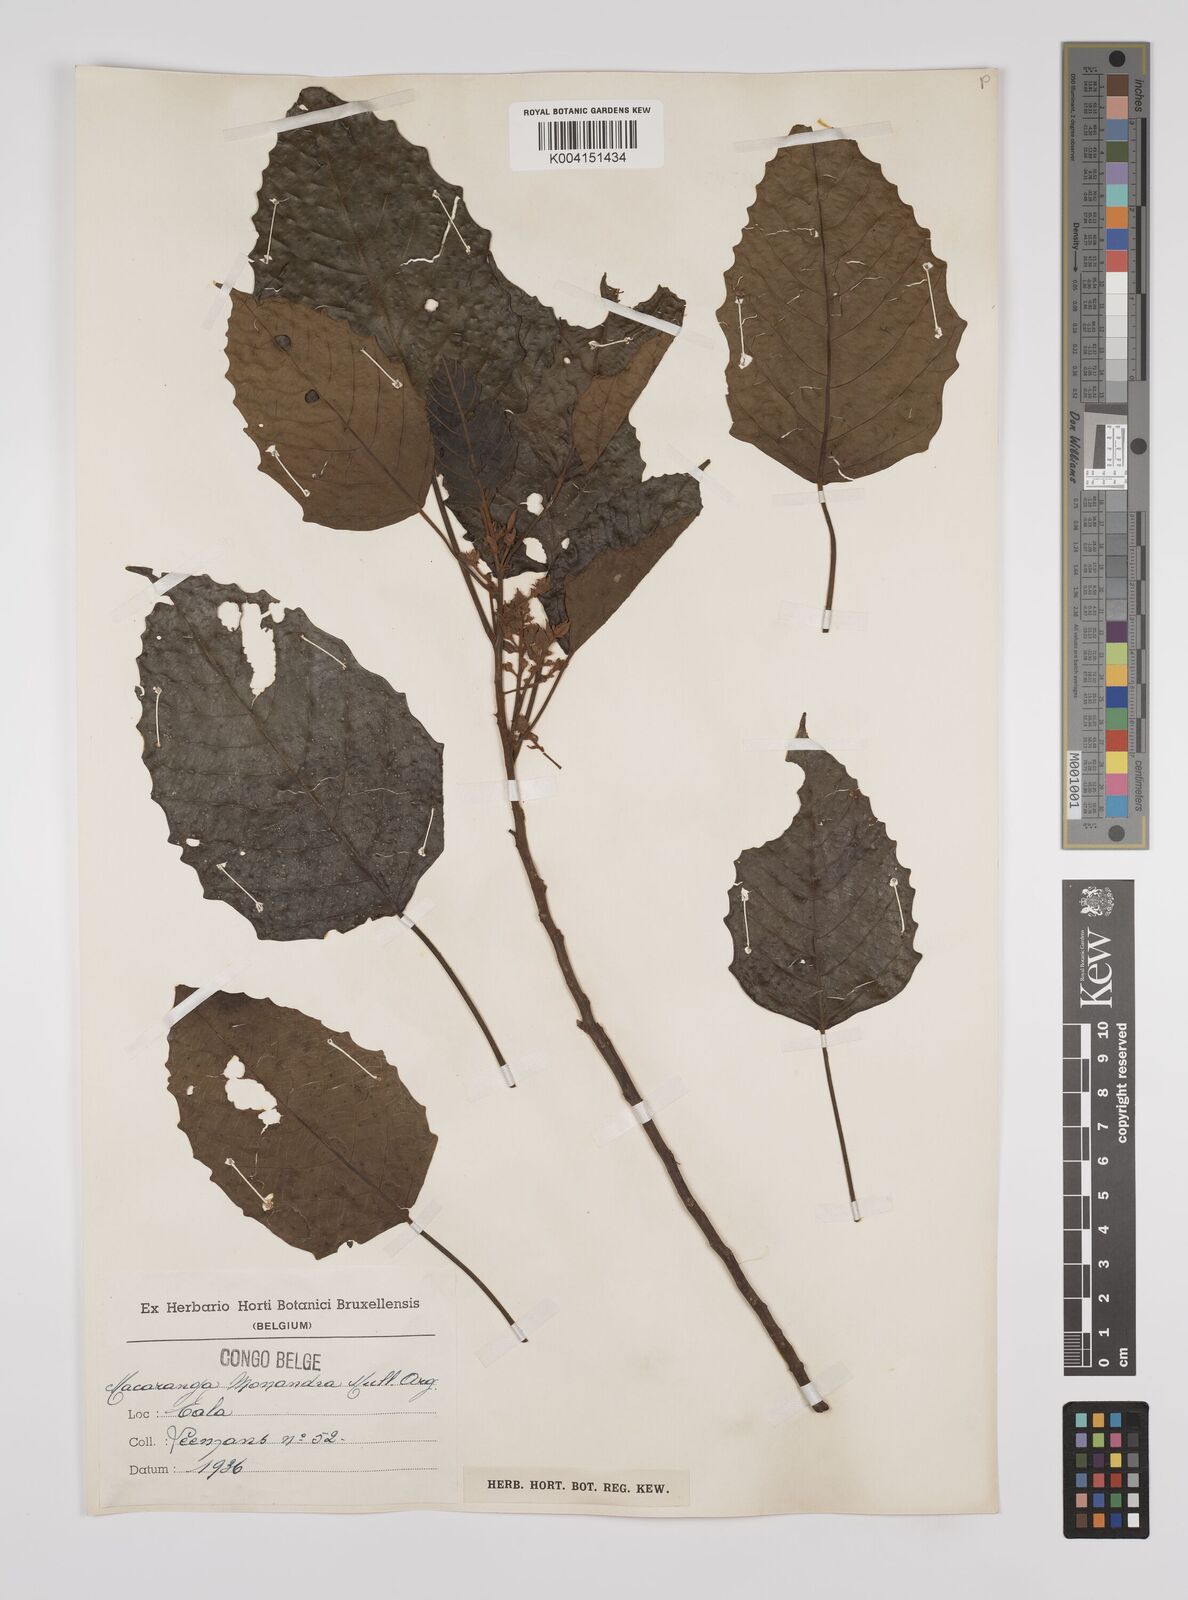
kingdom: Plantae
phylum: Tracheophyta
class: Magnoliopsida
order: Malpighiales
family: Euphorbiaceae
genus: Macaranga
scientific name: Macaranga monandra
